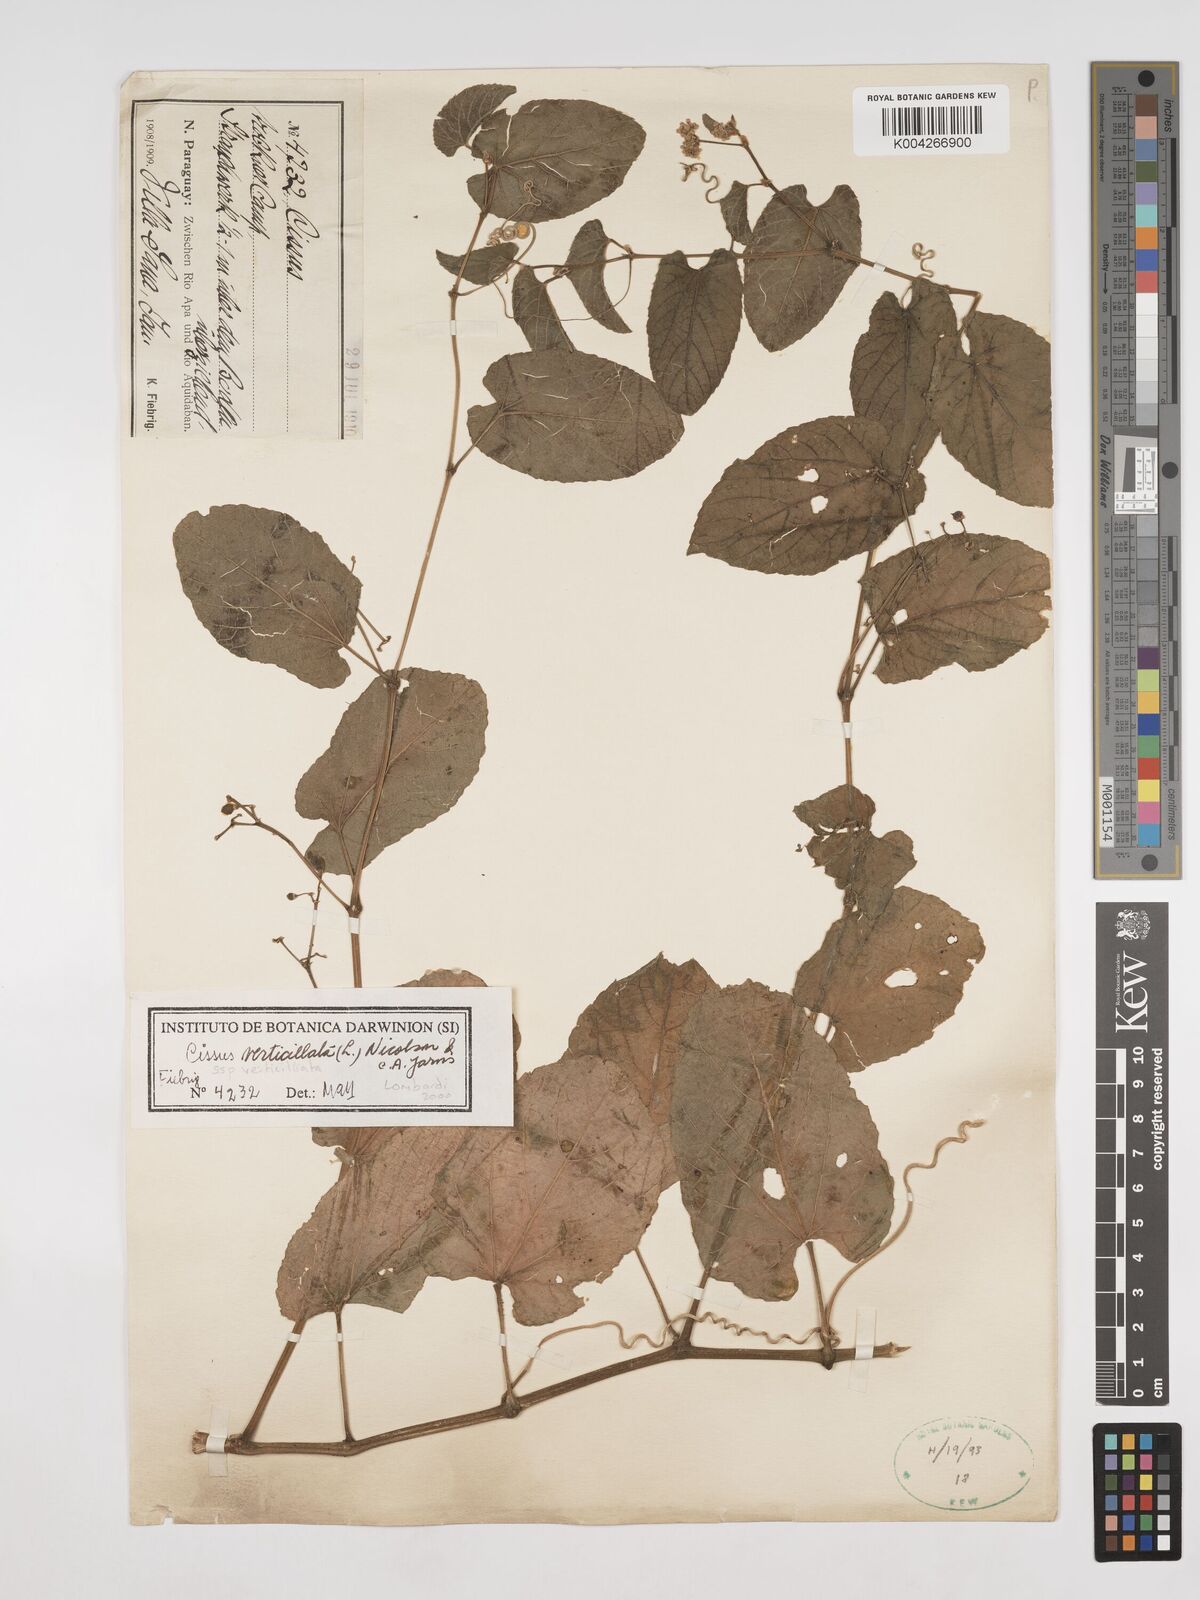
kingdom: Plantae
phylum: Tracheophyta
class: Magnoliopsida
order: Vitales
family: Vitaceae
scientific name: Vitaceae
